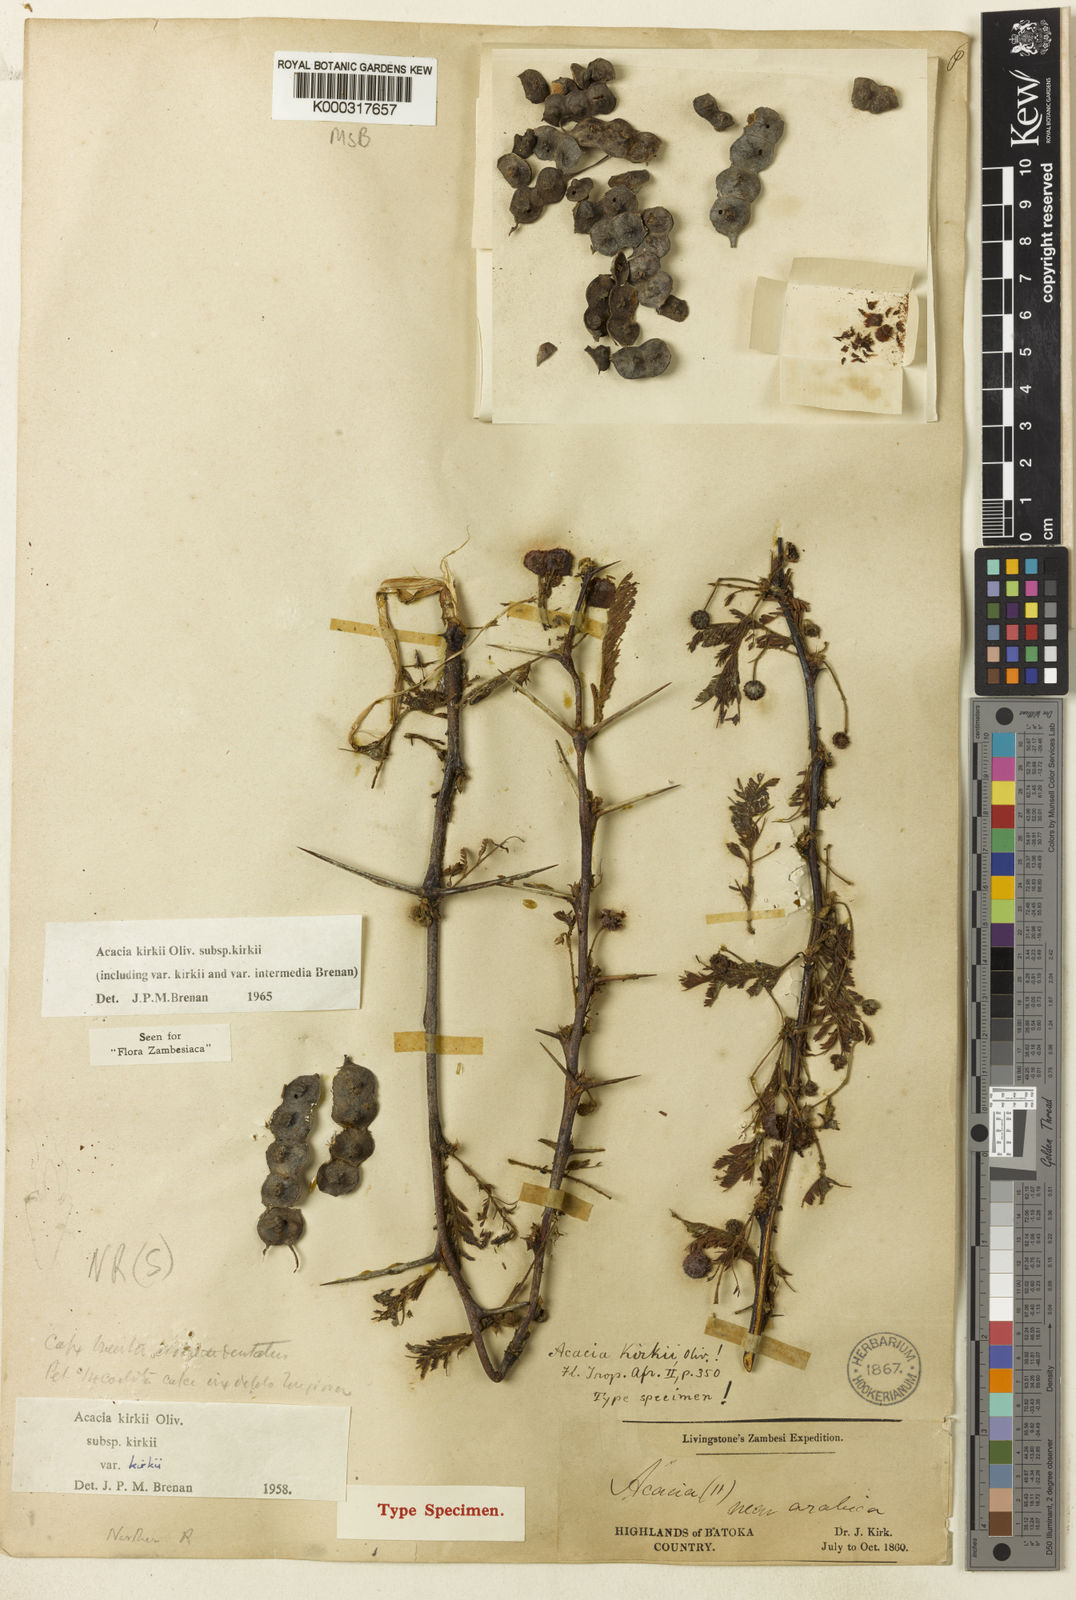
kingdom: Plantae
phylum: Tracheophyta
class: Magnoliopsida
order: Fabales
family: Fabaceae
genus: Vachellia
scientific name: Vachellia kirkii
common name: Flood-plain acacia
